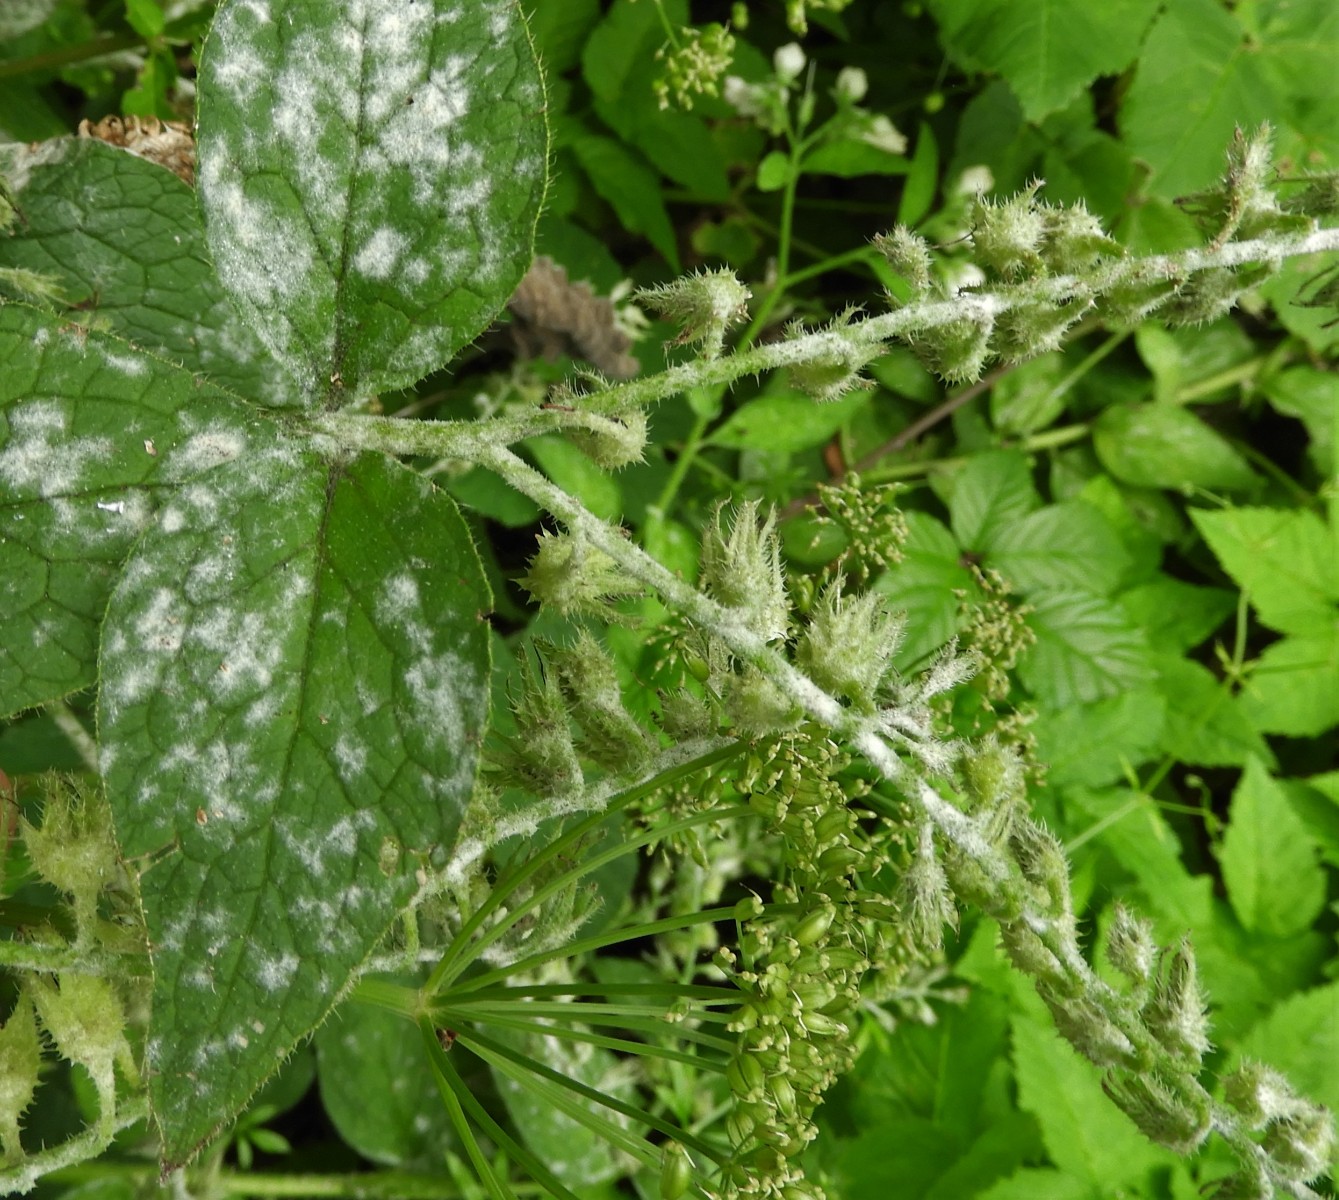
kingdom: Fungi
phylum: Ascomycota
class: Leotiomycetes
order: Helotiales
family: Erysiphaceae
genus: Golovinomyces
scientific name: Golovinomyces asperifoliorum
